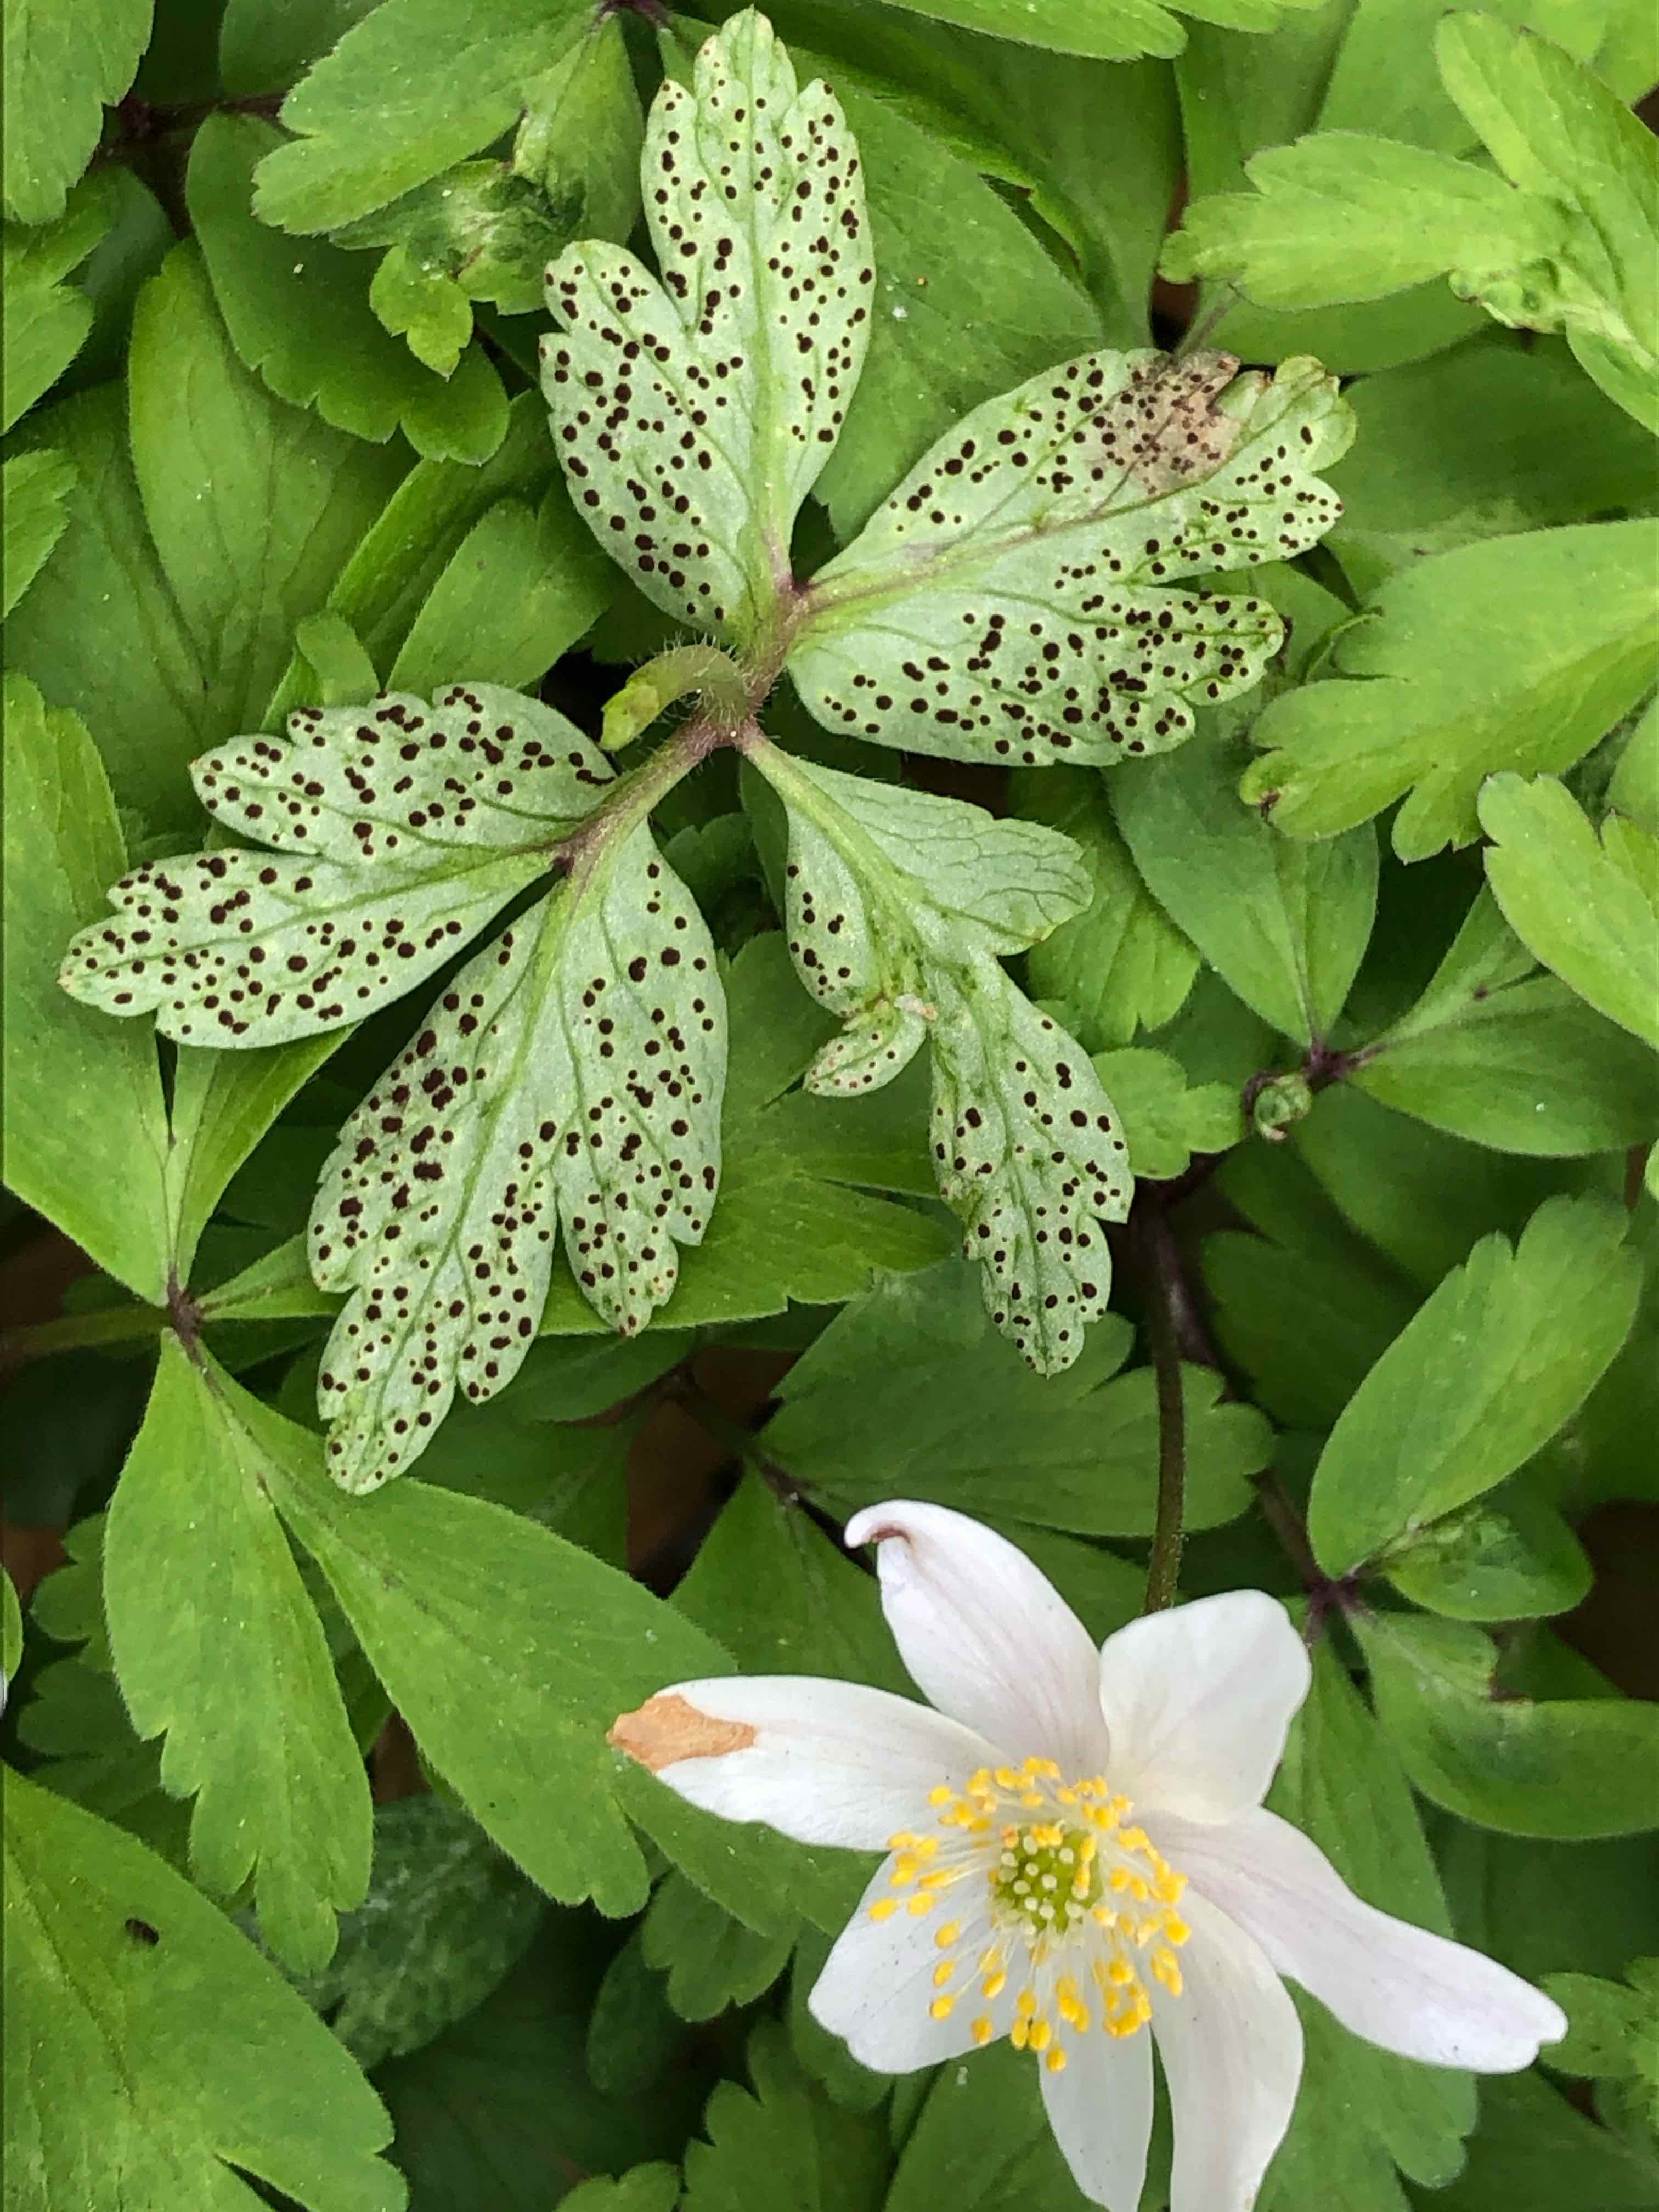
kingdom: Fungi
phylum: Basidiomycota
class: Pucciniomycetes
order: Pucciniales
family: Tranzscheliaceae
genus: Tranzschelia
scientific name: Tranzschelia anemones
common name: anemone-knæksporerust
